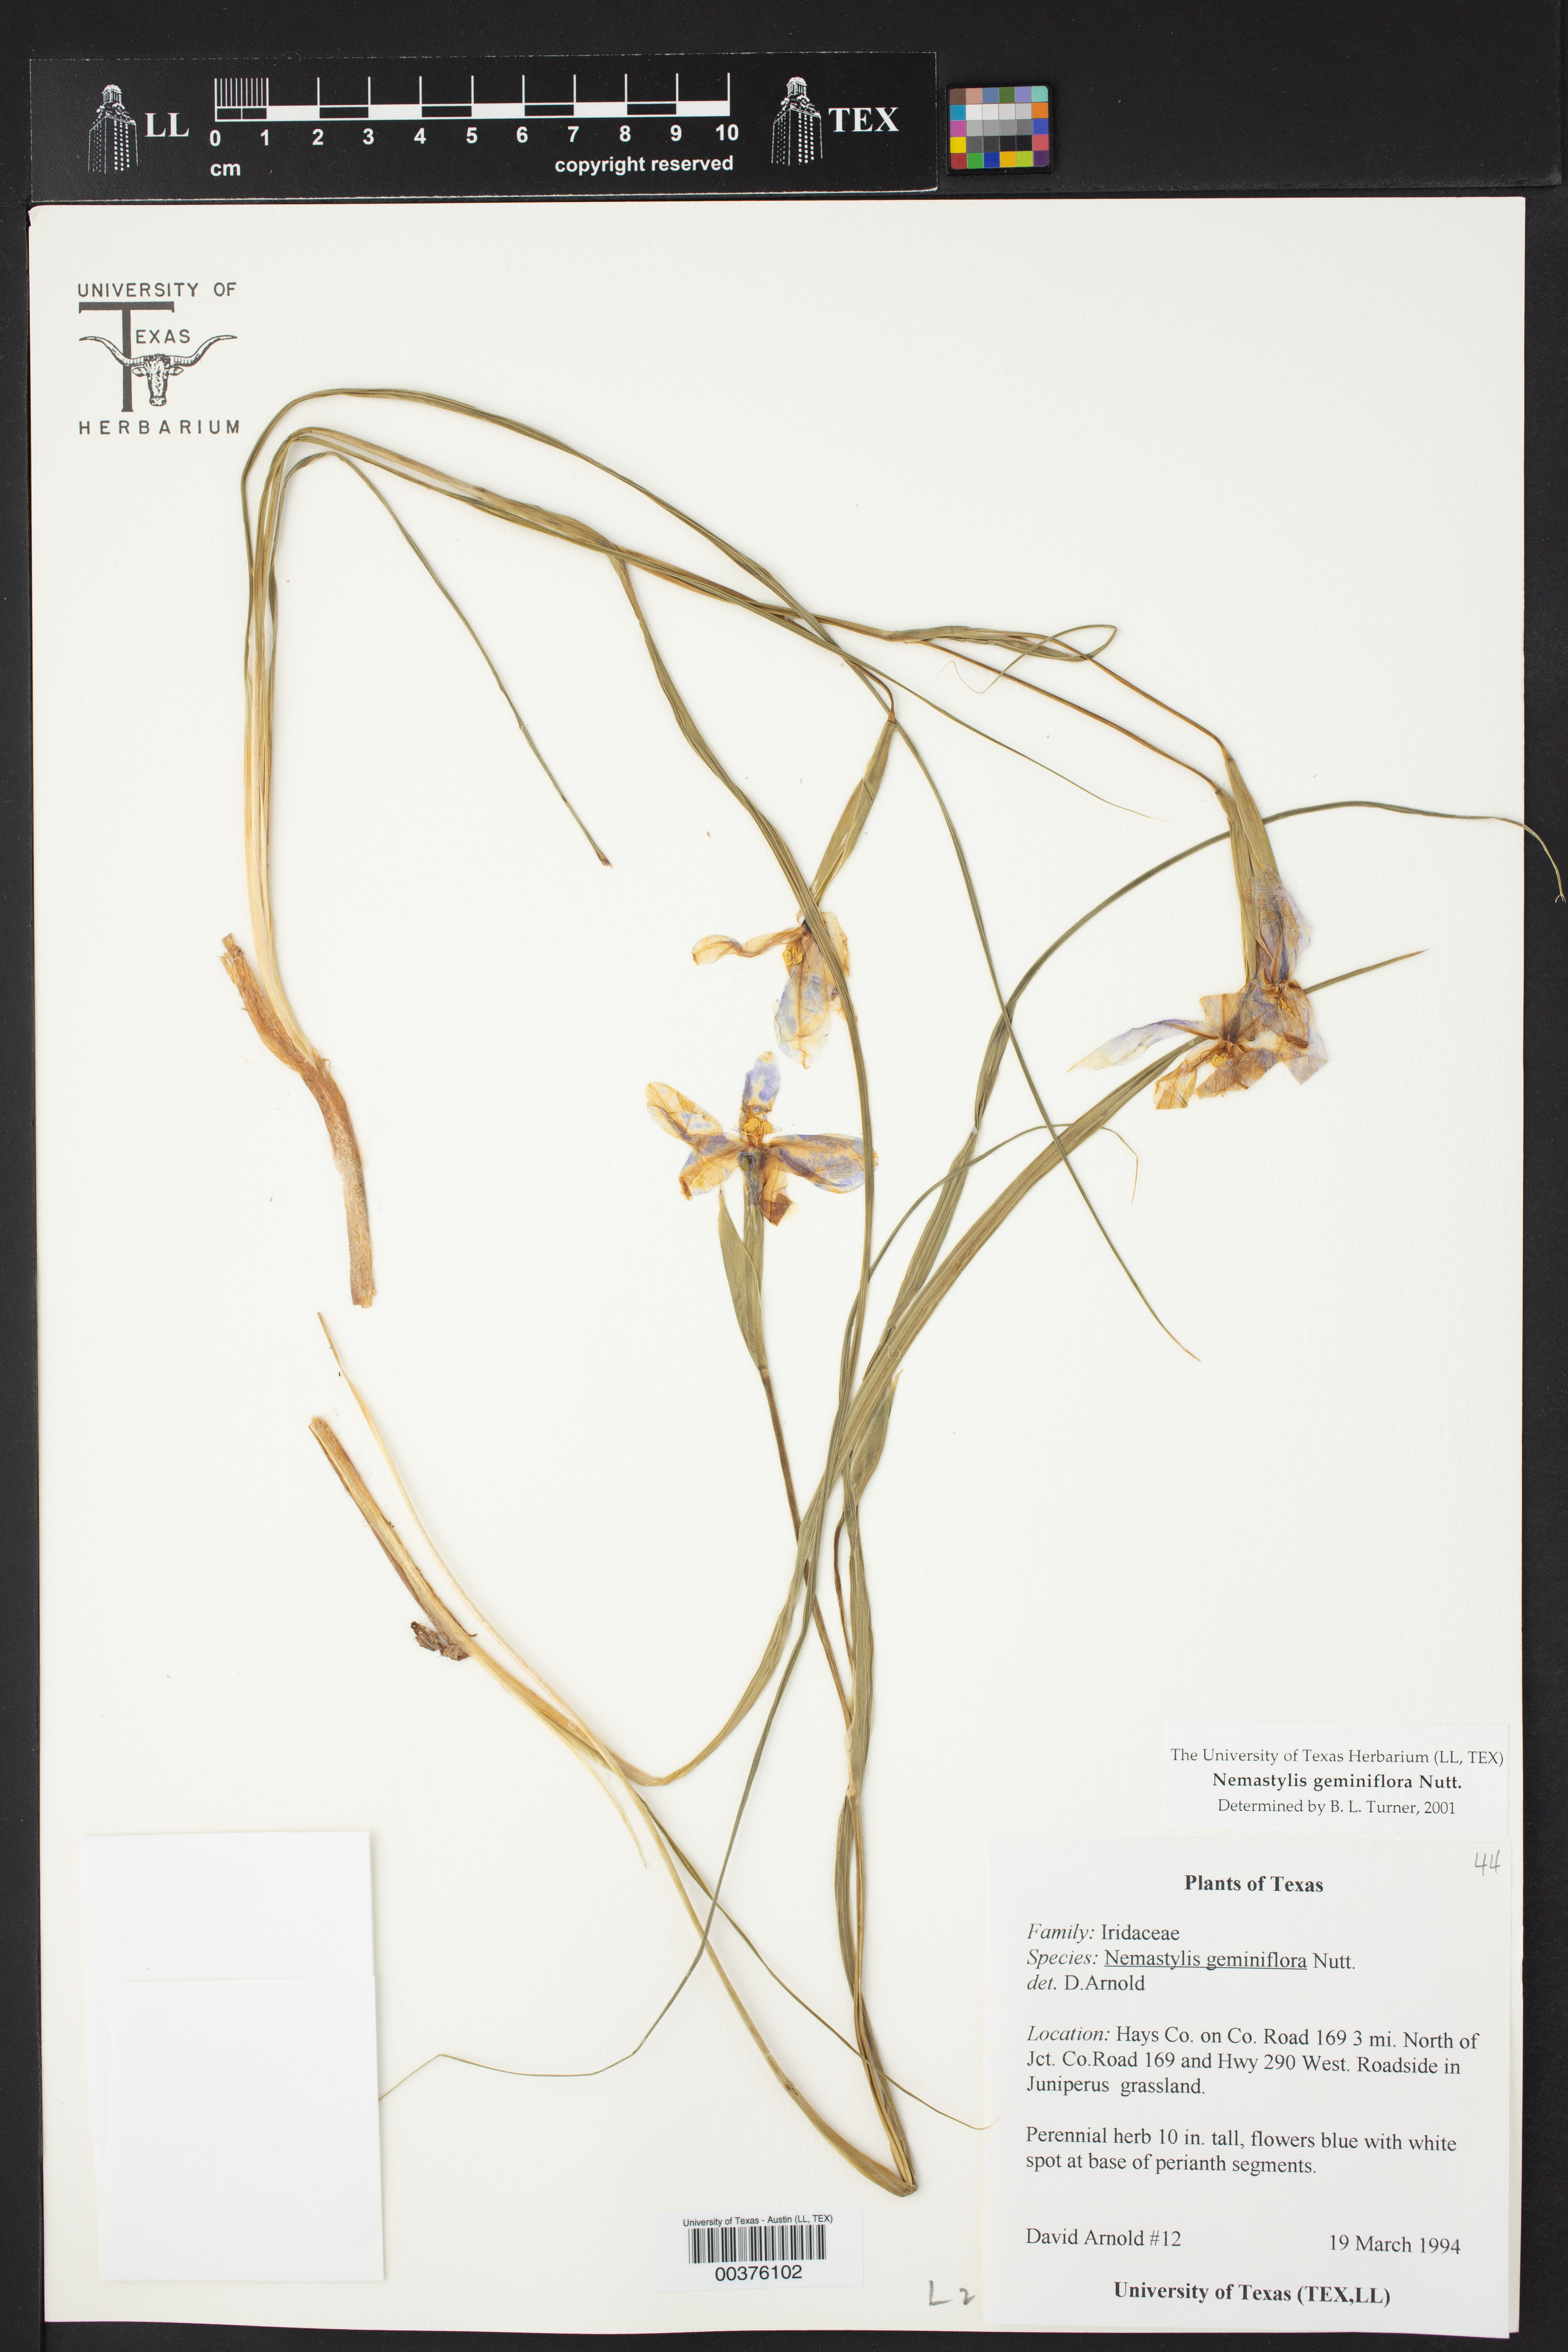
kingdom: Plantae
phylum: Tracheophyta
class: Liliopsida
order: Asparagales
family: Iridaceae
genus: Nemastylis
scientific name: Nemastylis geminiflora
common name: Prairie celestial
